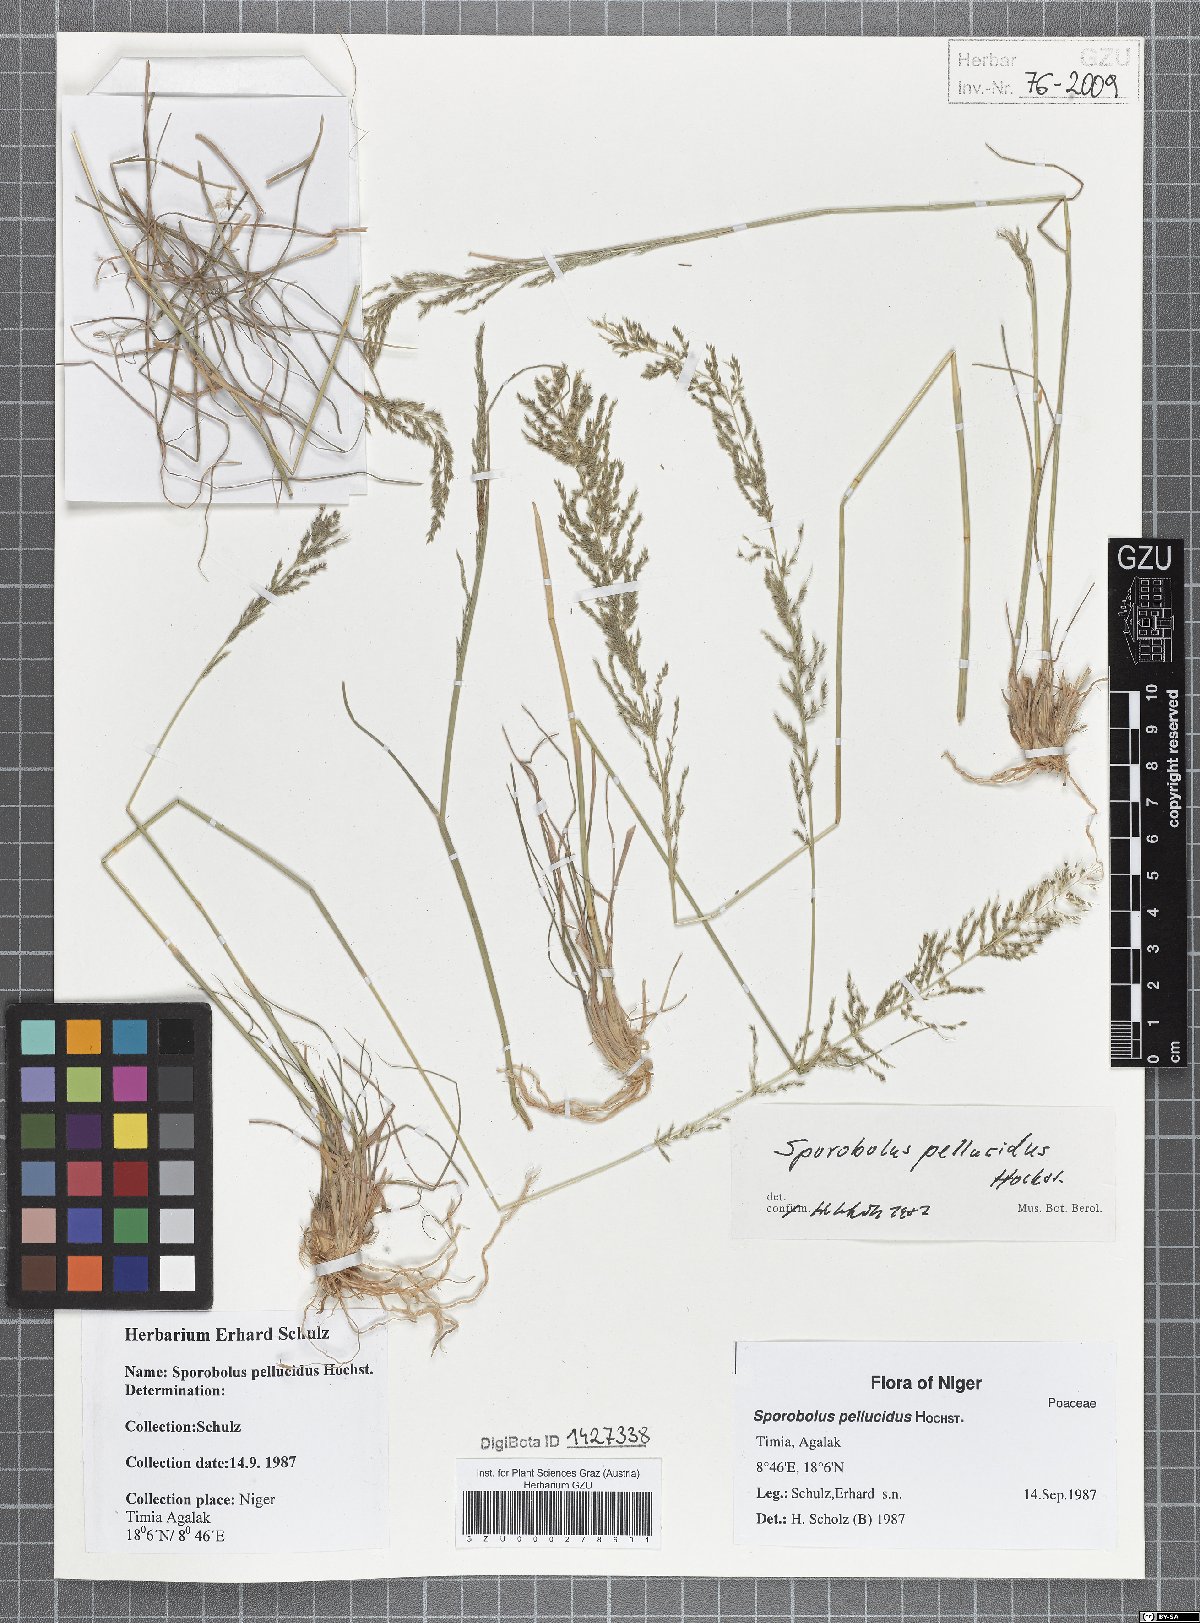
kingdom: Plantae
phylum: Tracheophyta
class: Liliopsida
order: Poales
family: Poaceae
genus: Sporobolus
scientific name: Sporobolus pellucidus
